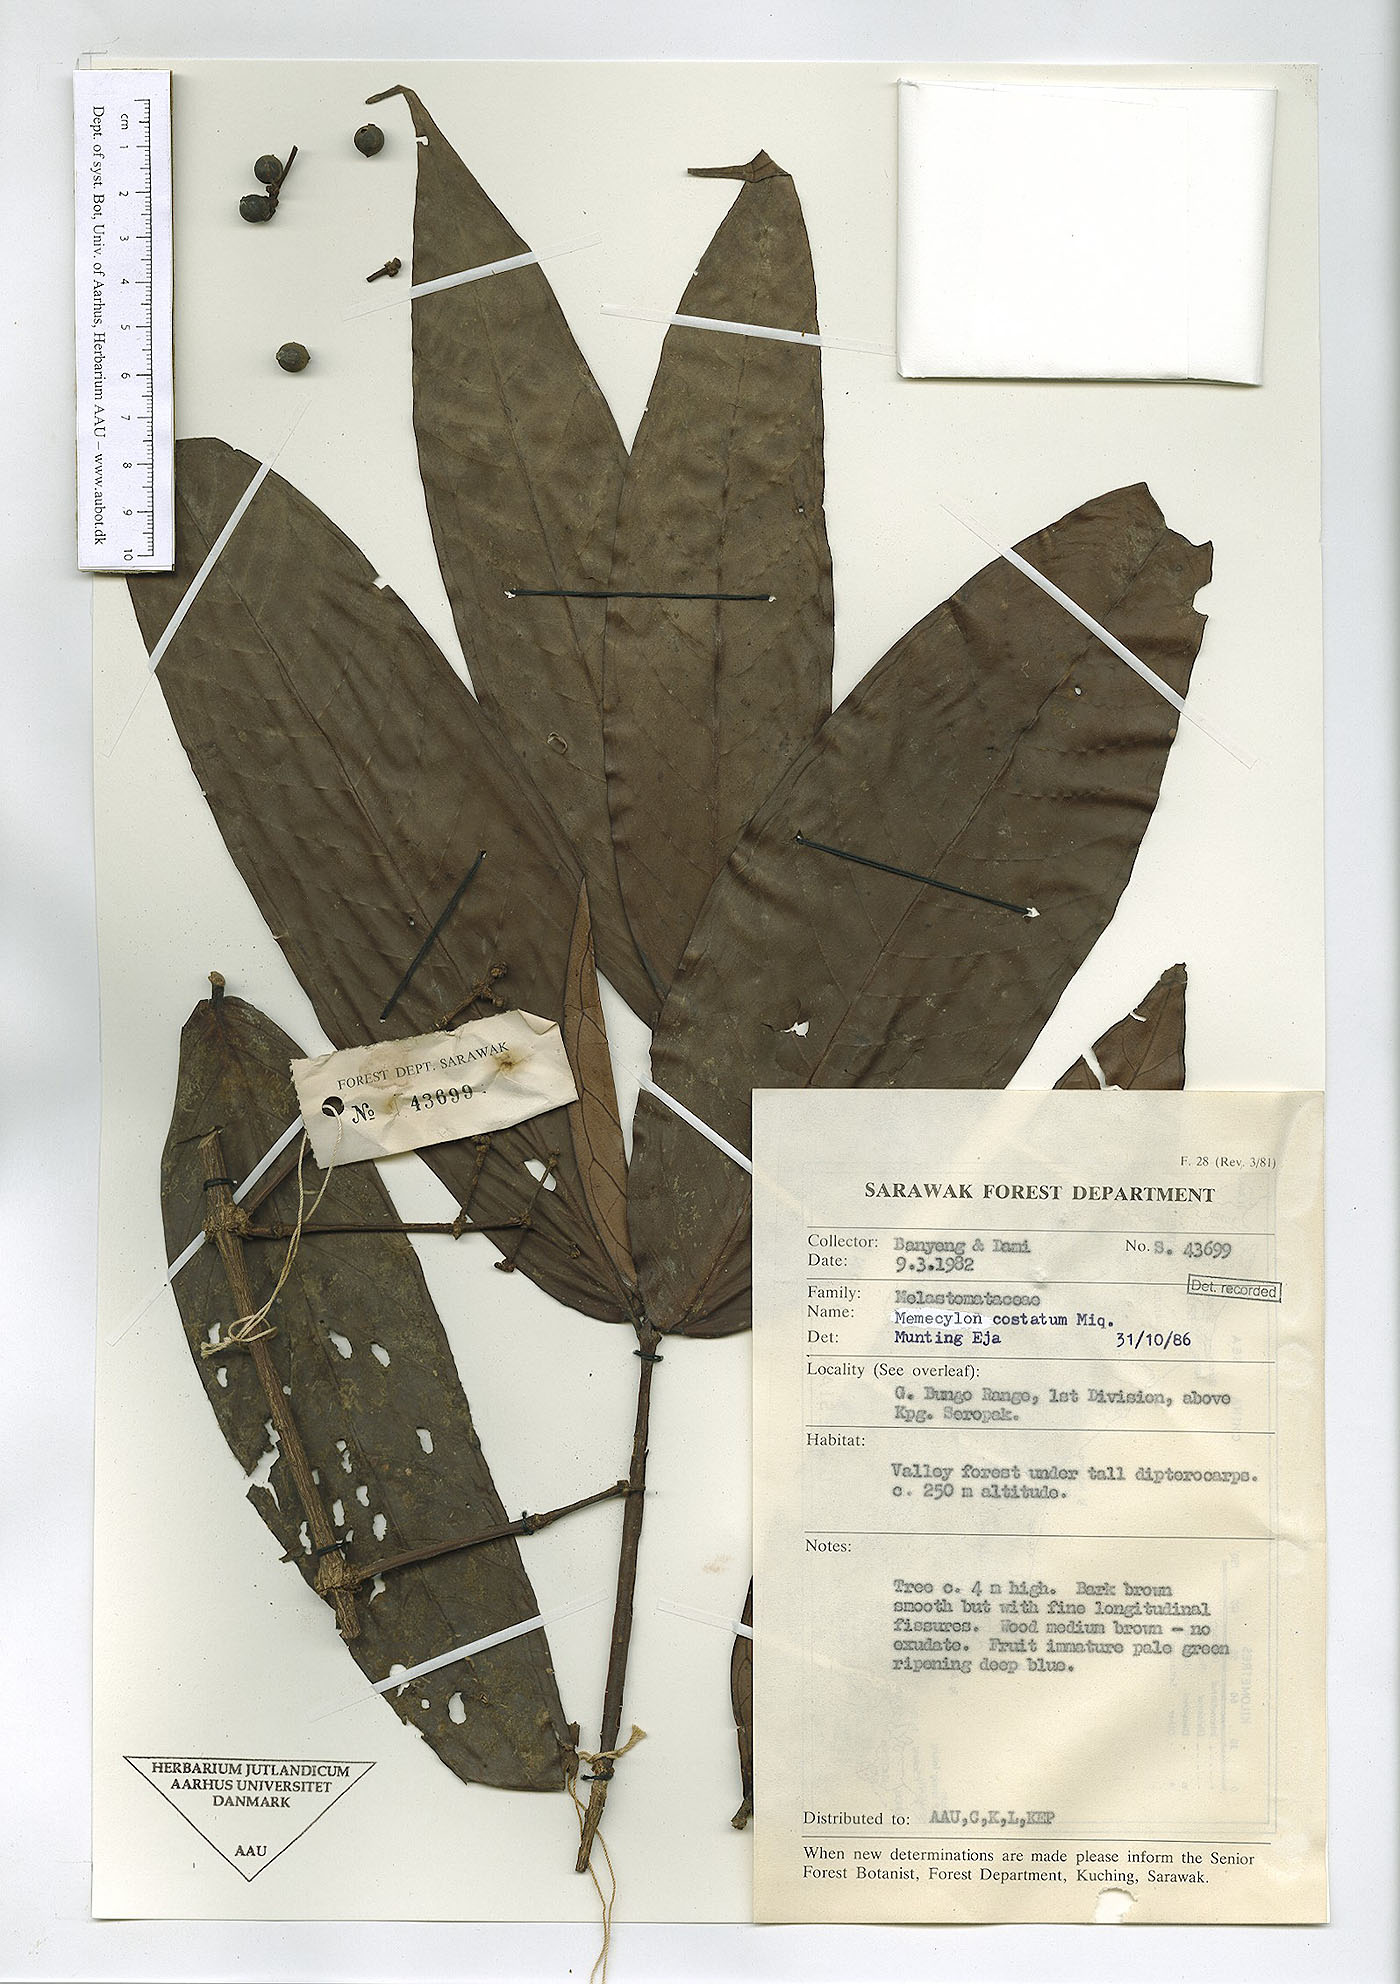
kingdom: Plantae
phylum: Tracheophyta
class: Magnoliopsida
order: Myrtales
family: Melastomataceae
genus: Memecylon
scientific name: Memecylon paniculatum
